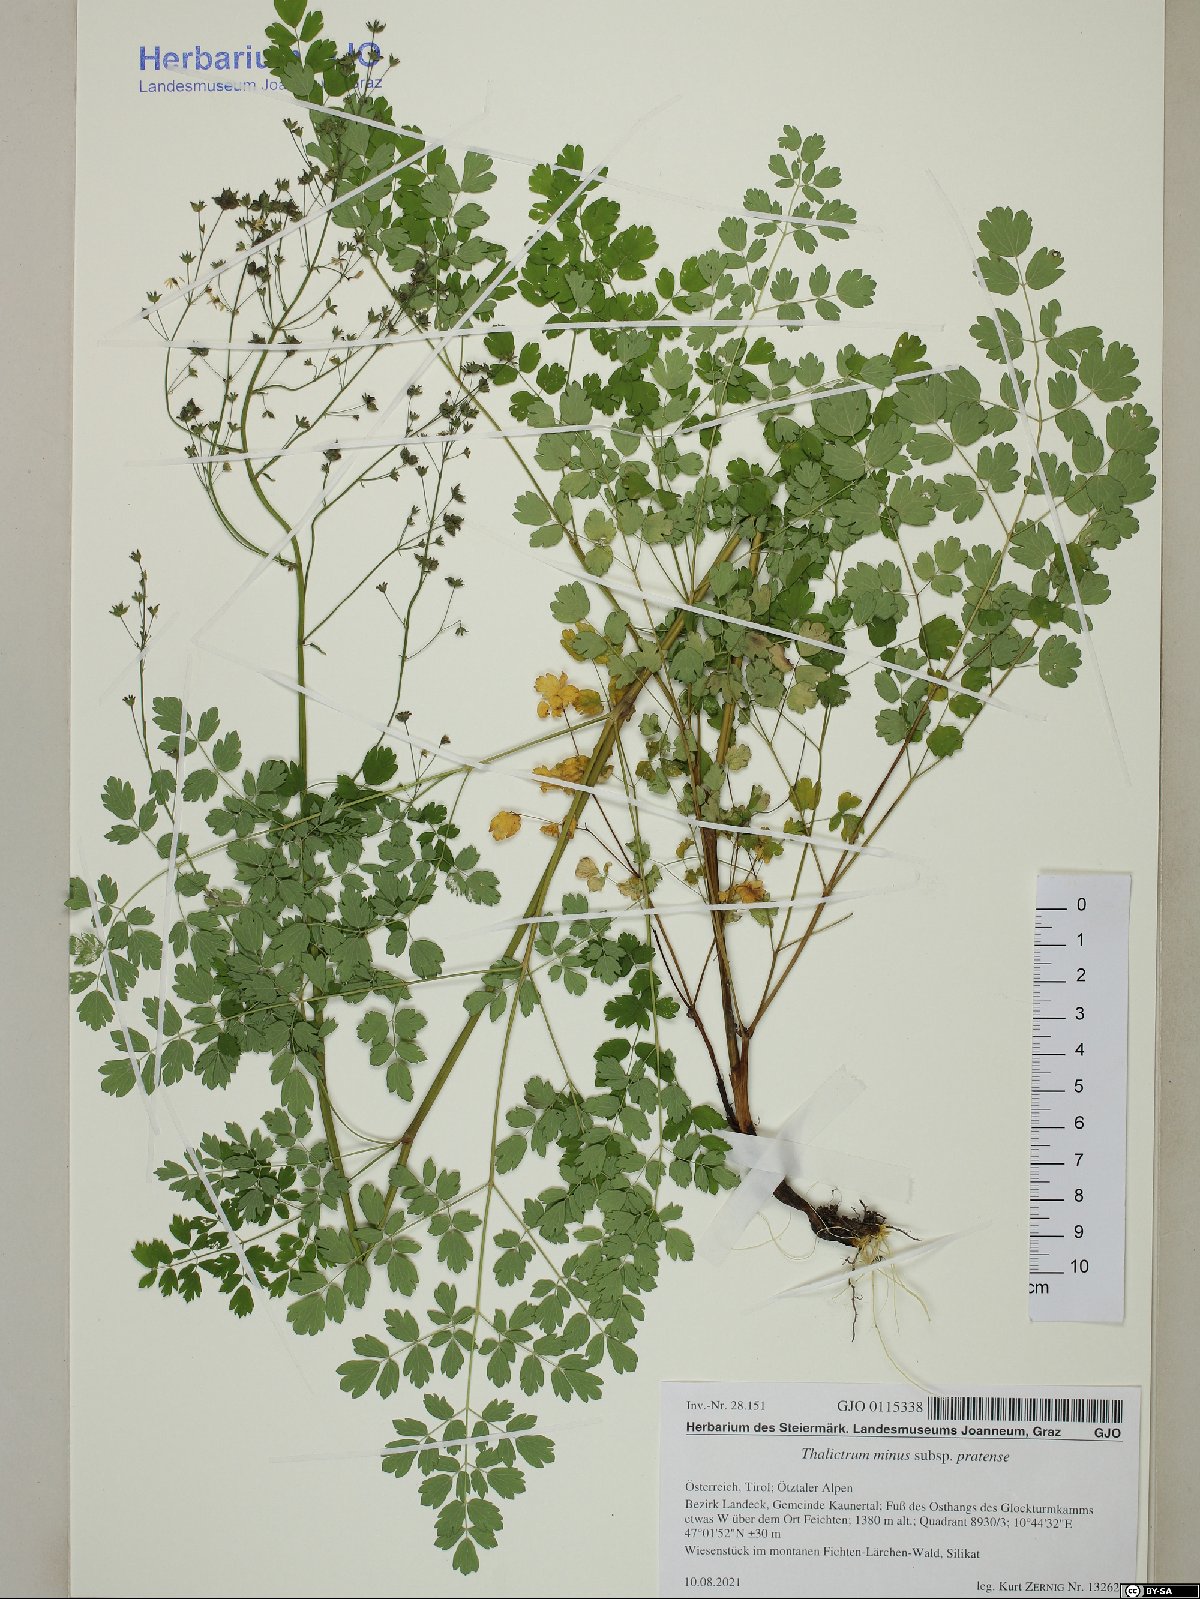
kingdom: Plantae
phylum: Tracheophyta
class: Magnoliopsida
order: Ranunculales
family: Ranunculaceae
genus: Thalictrum
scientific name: Thalictrum minus
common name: Lesser meadow-rue
